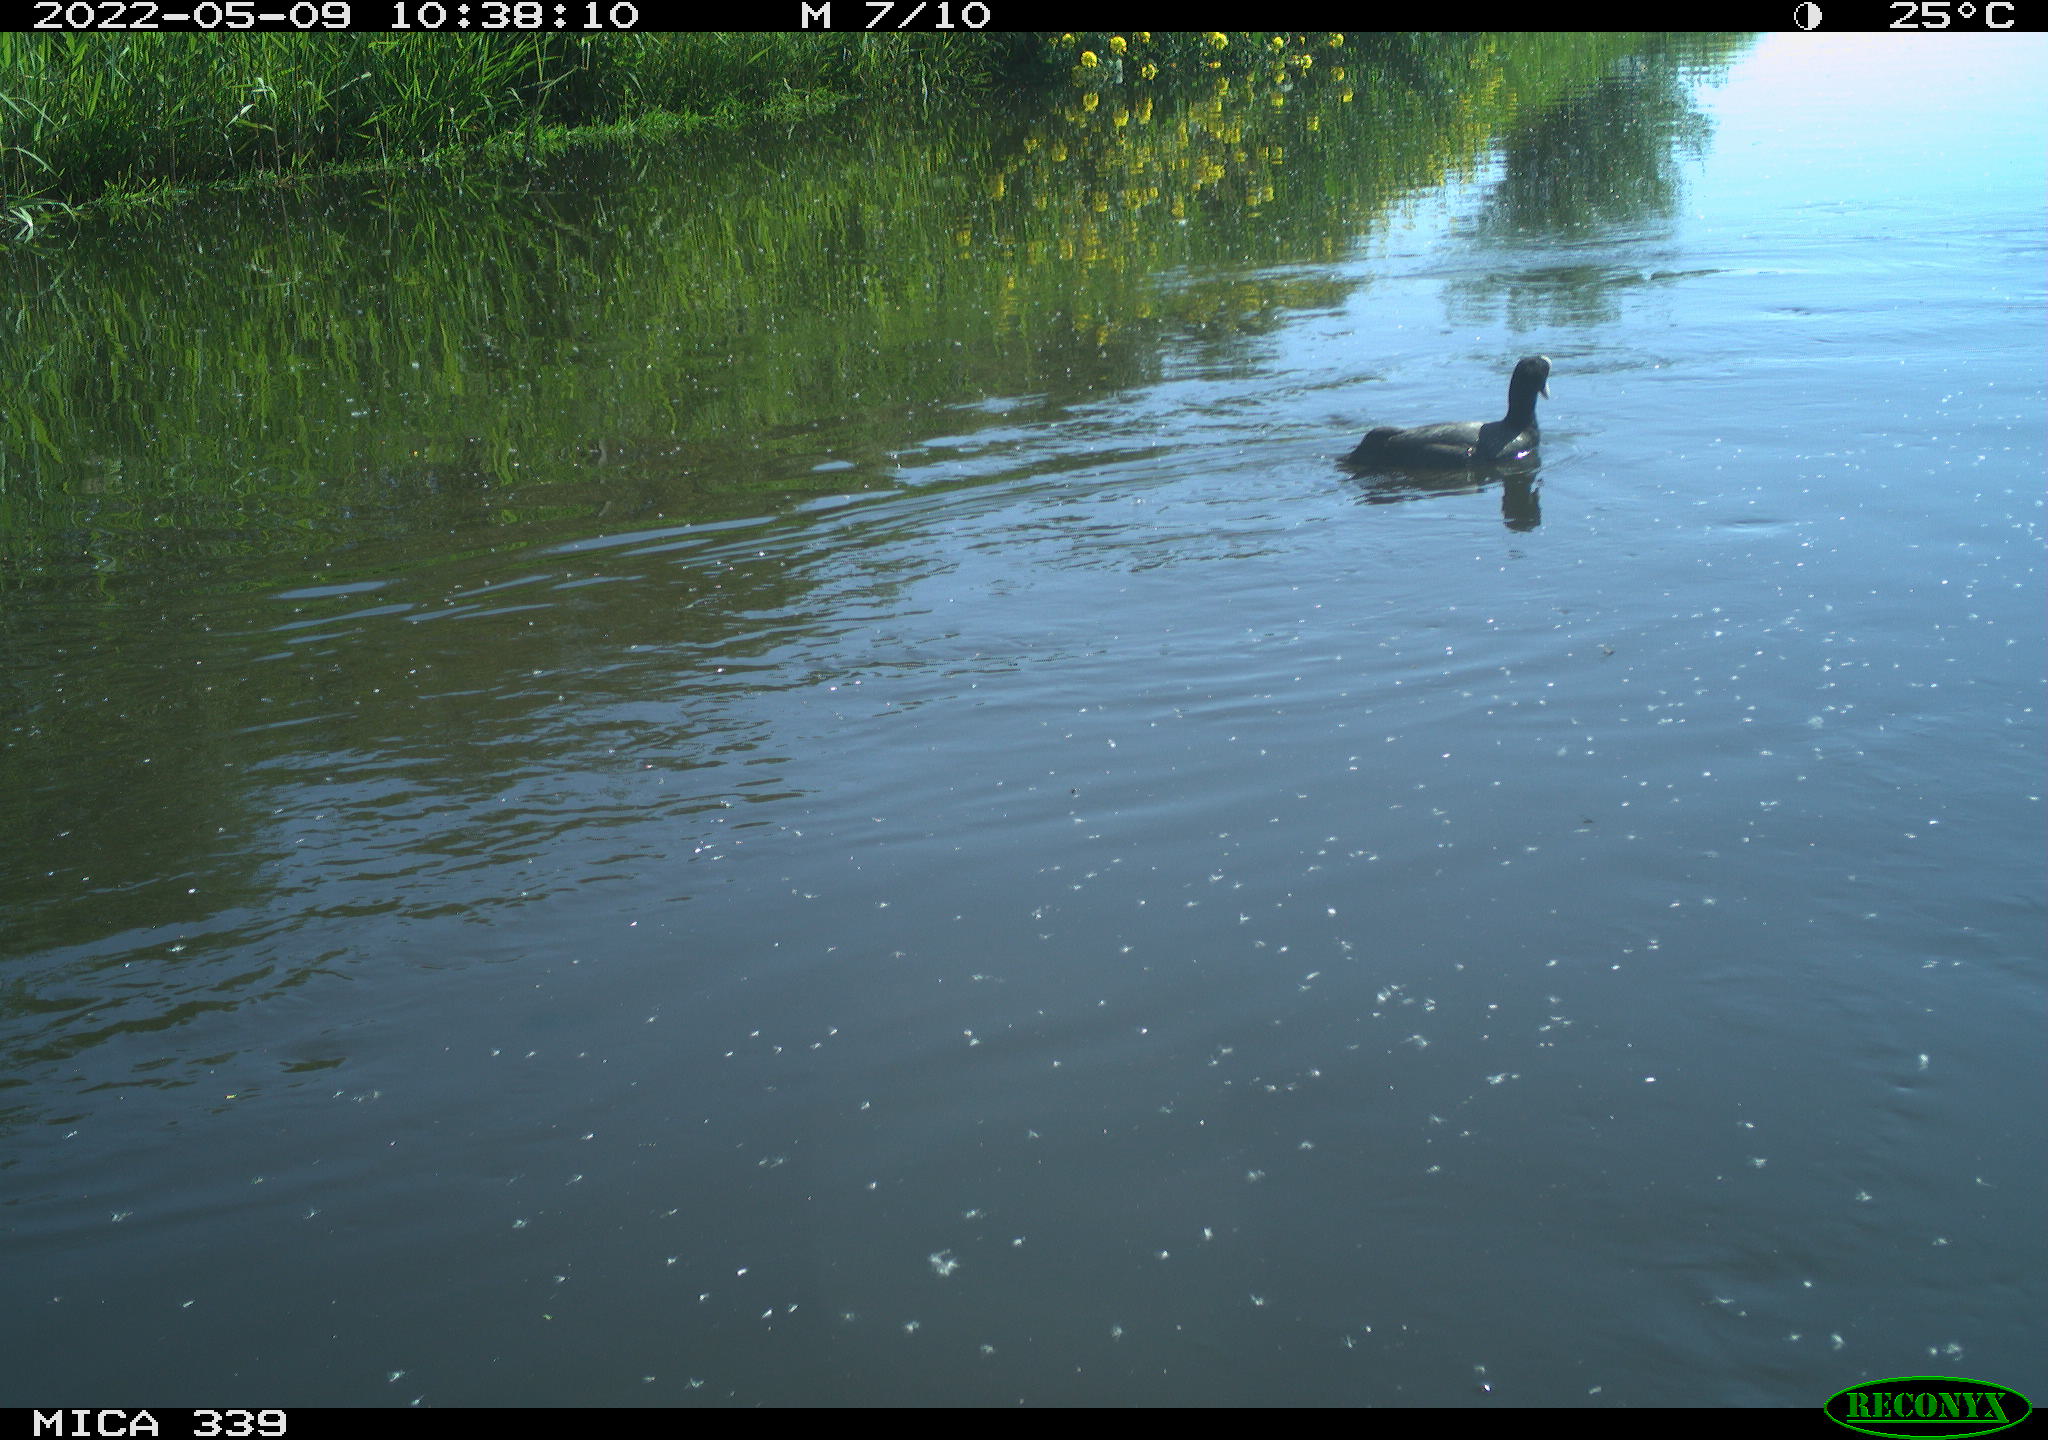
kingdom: Animalia
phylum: Chordata
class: Aves
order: Gruiformes
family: Rallidae
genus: Gallinula
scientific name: Gallinula chloropus
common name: Common moorhen
